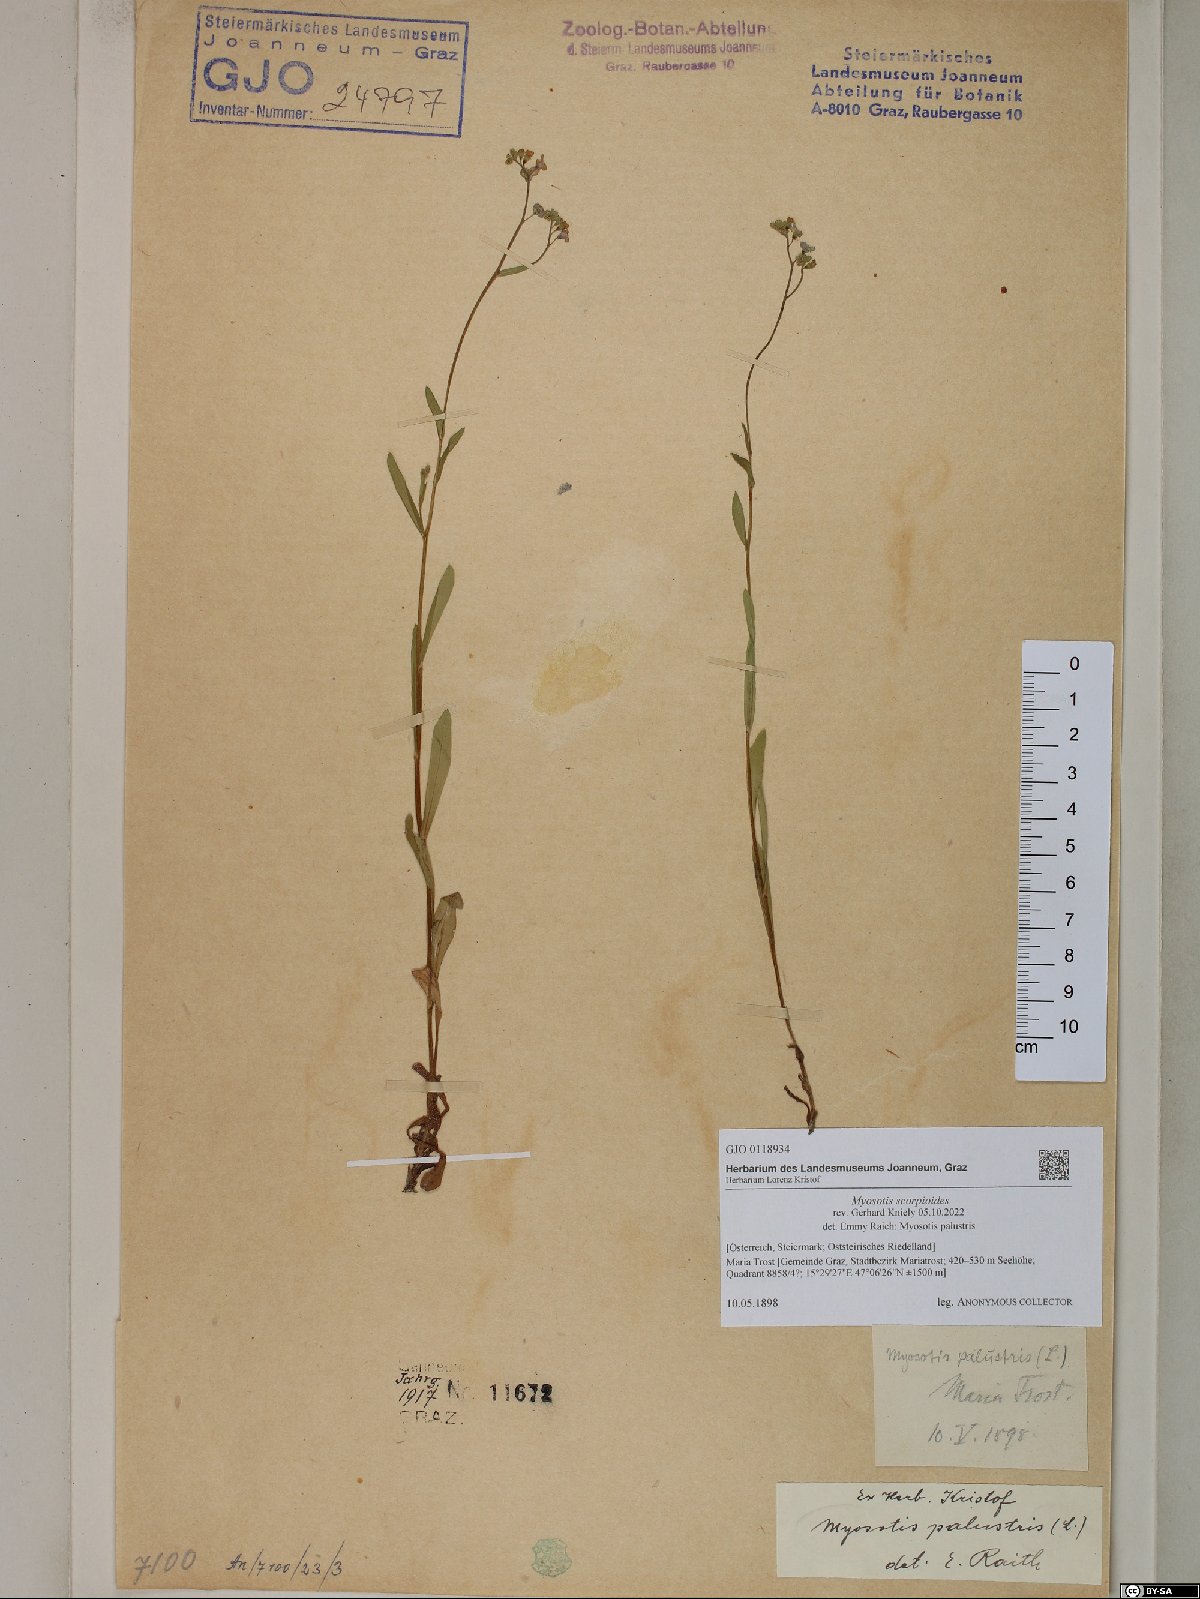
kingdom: Plantae
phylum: Tracheophyta
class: Magnoliopsida
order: Boraginales
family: Boraginaceae
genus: Myosotis
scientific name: Myosotis scorpioides
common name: Water forget-me-not
